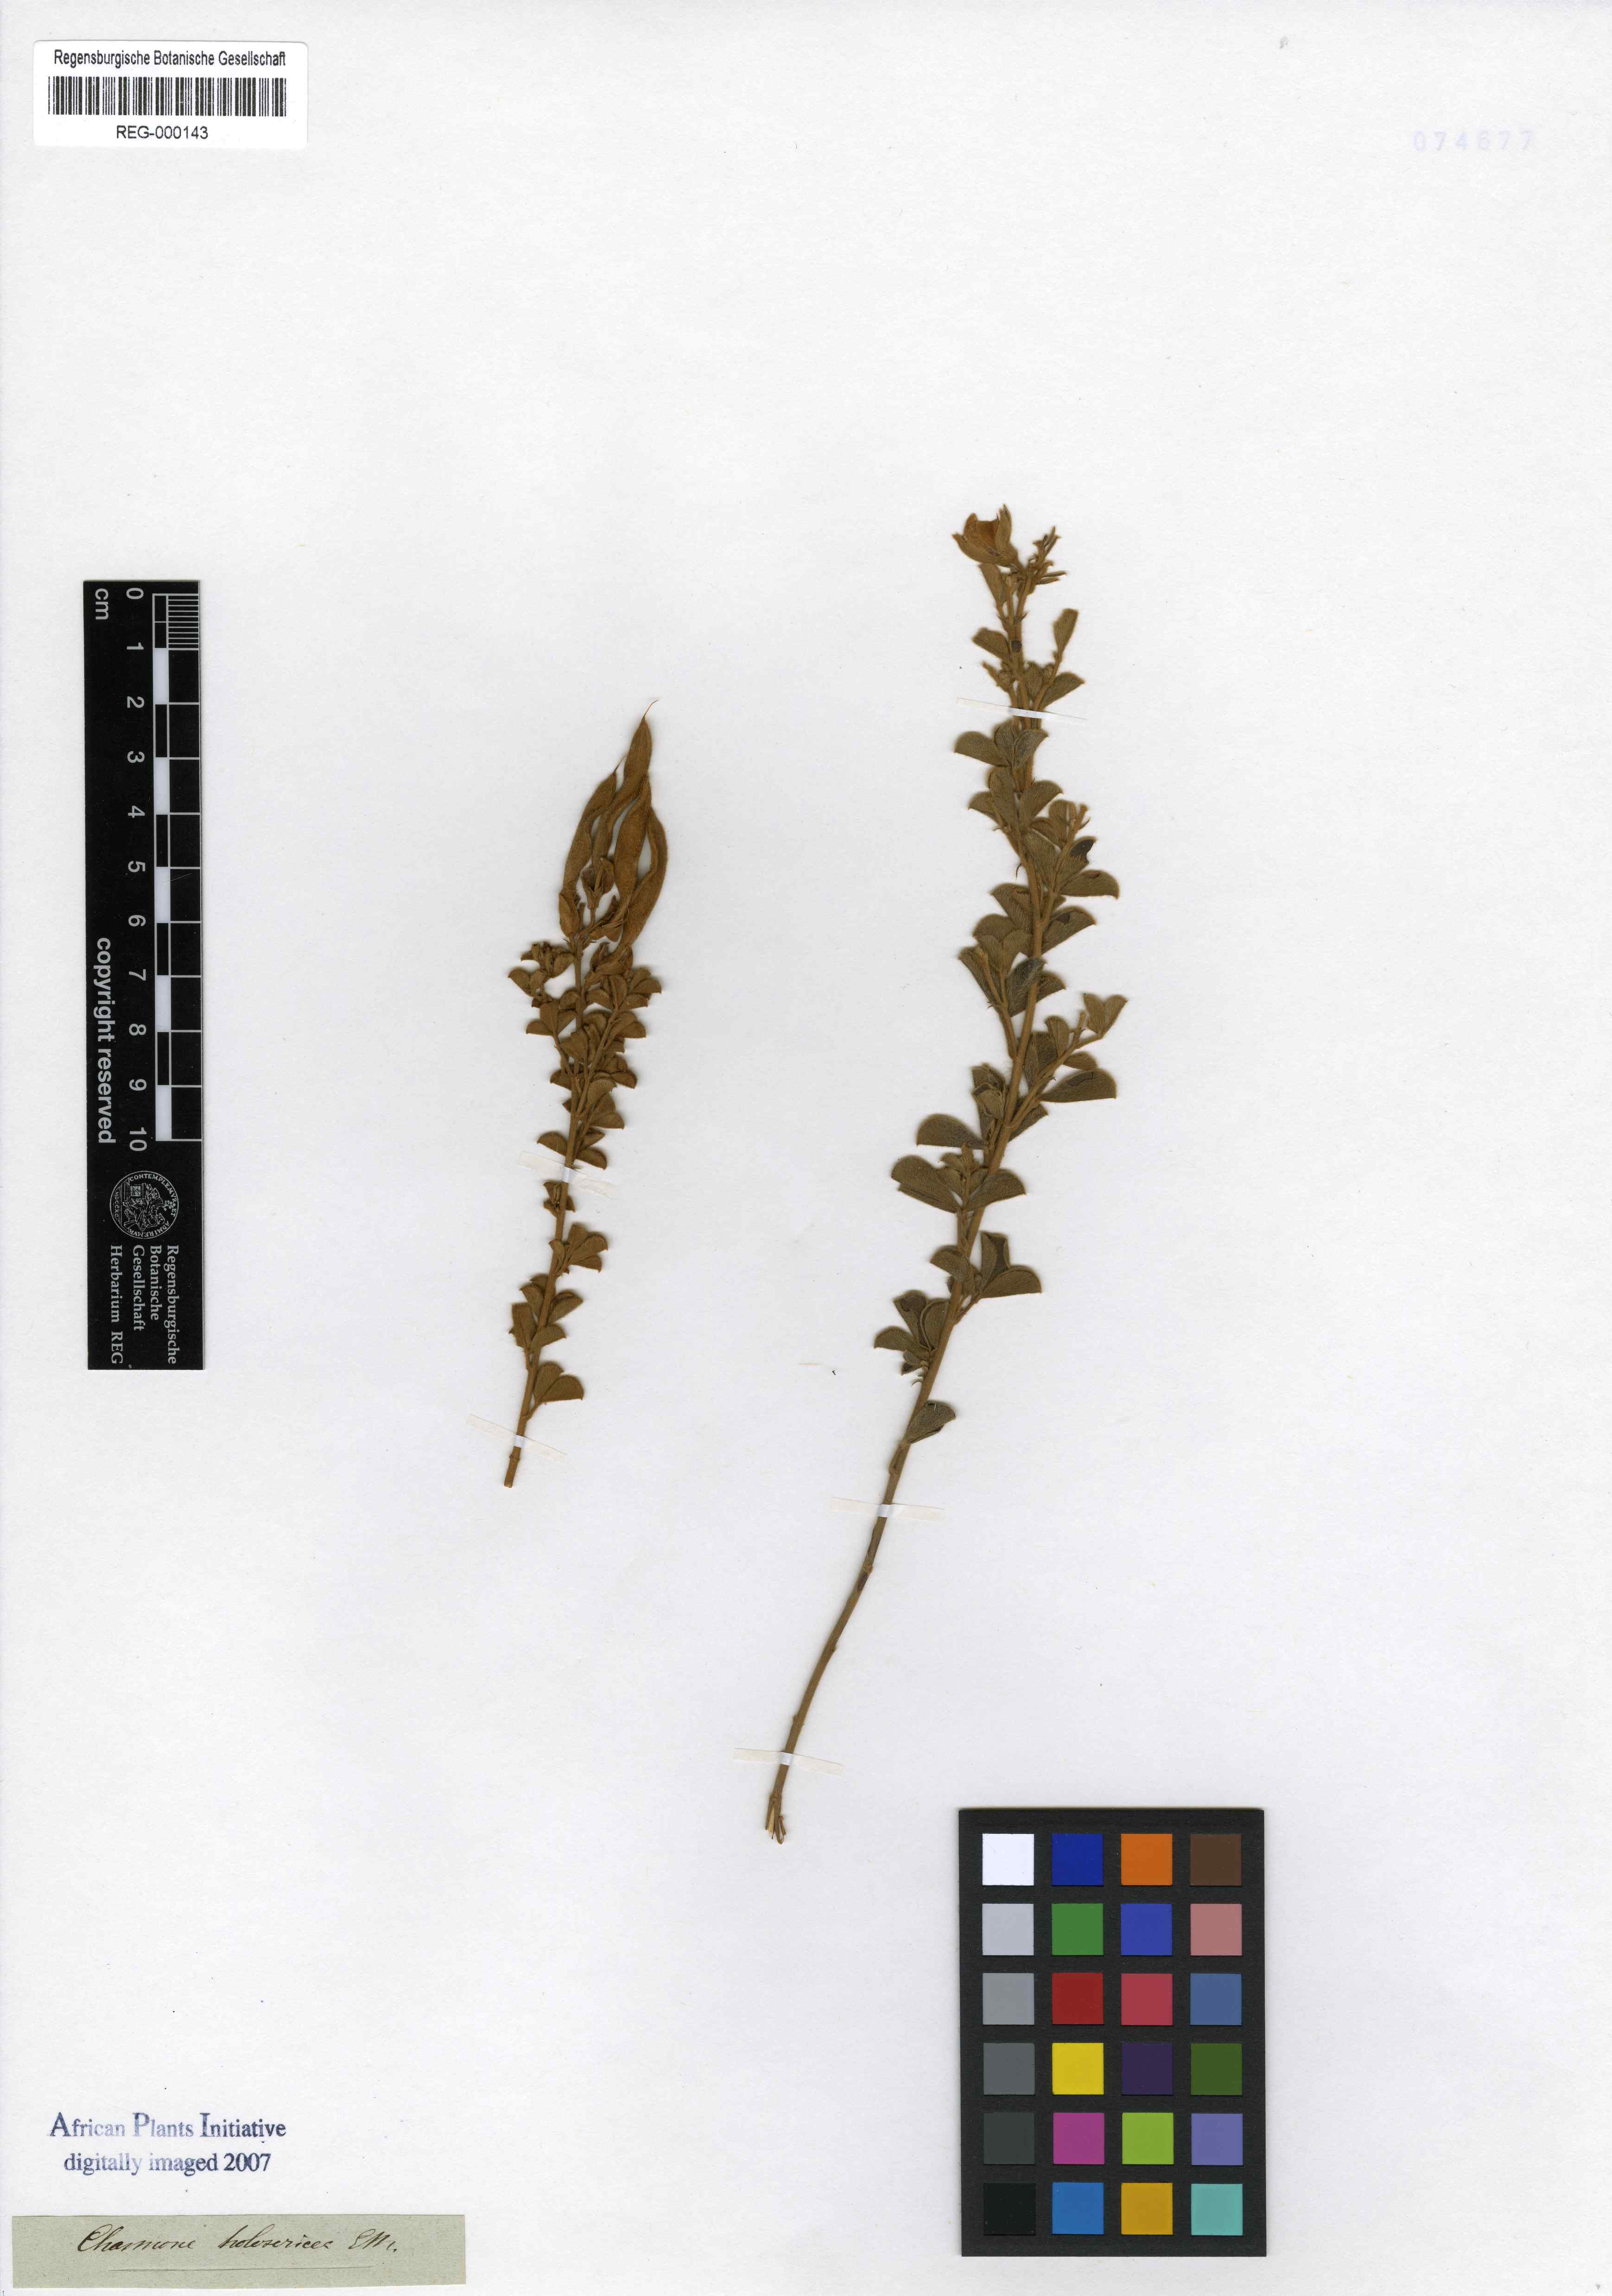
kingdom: Plantae
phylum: Tracheophyta
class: Magnoliopsida
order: Fabales
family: Fabaceae
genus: Argyrolobium
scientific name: Argyrolobium trifoliatum
